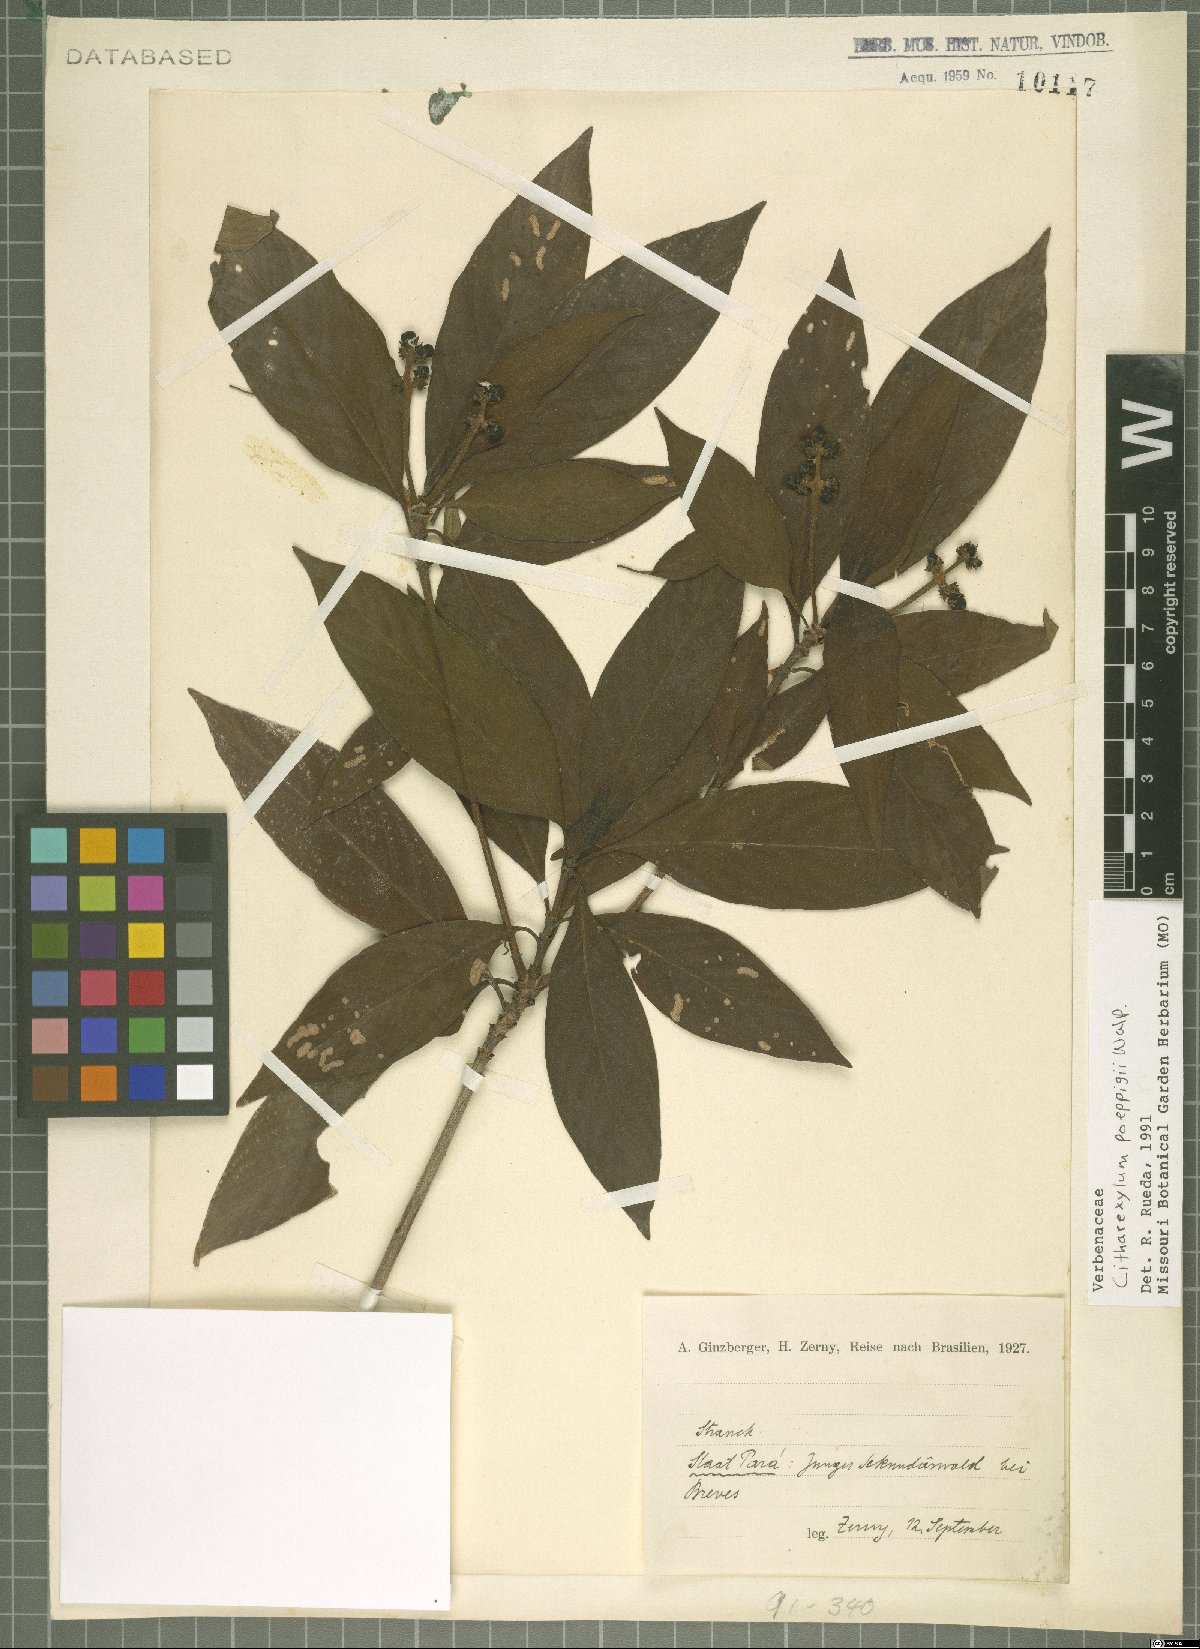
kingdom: Plantae
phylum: Tracheophyta
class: Magnoliopsida
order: Lamiales
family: Verbenaceae
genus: Citharexylum
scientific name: Citharexylum poeppigii
